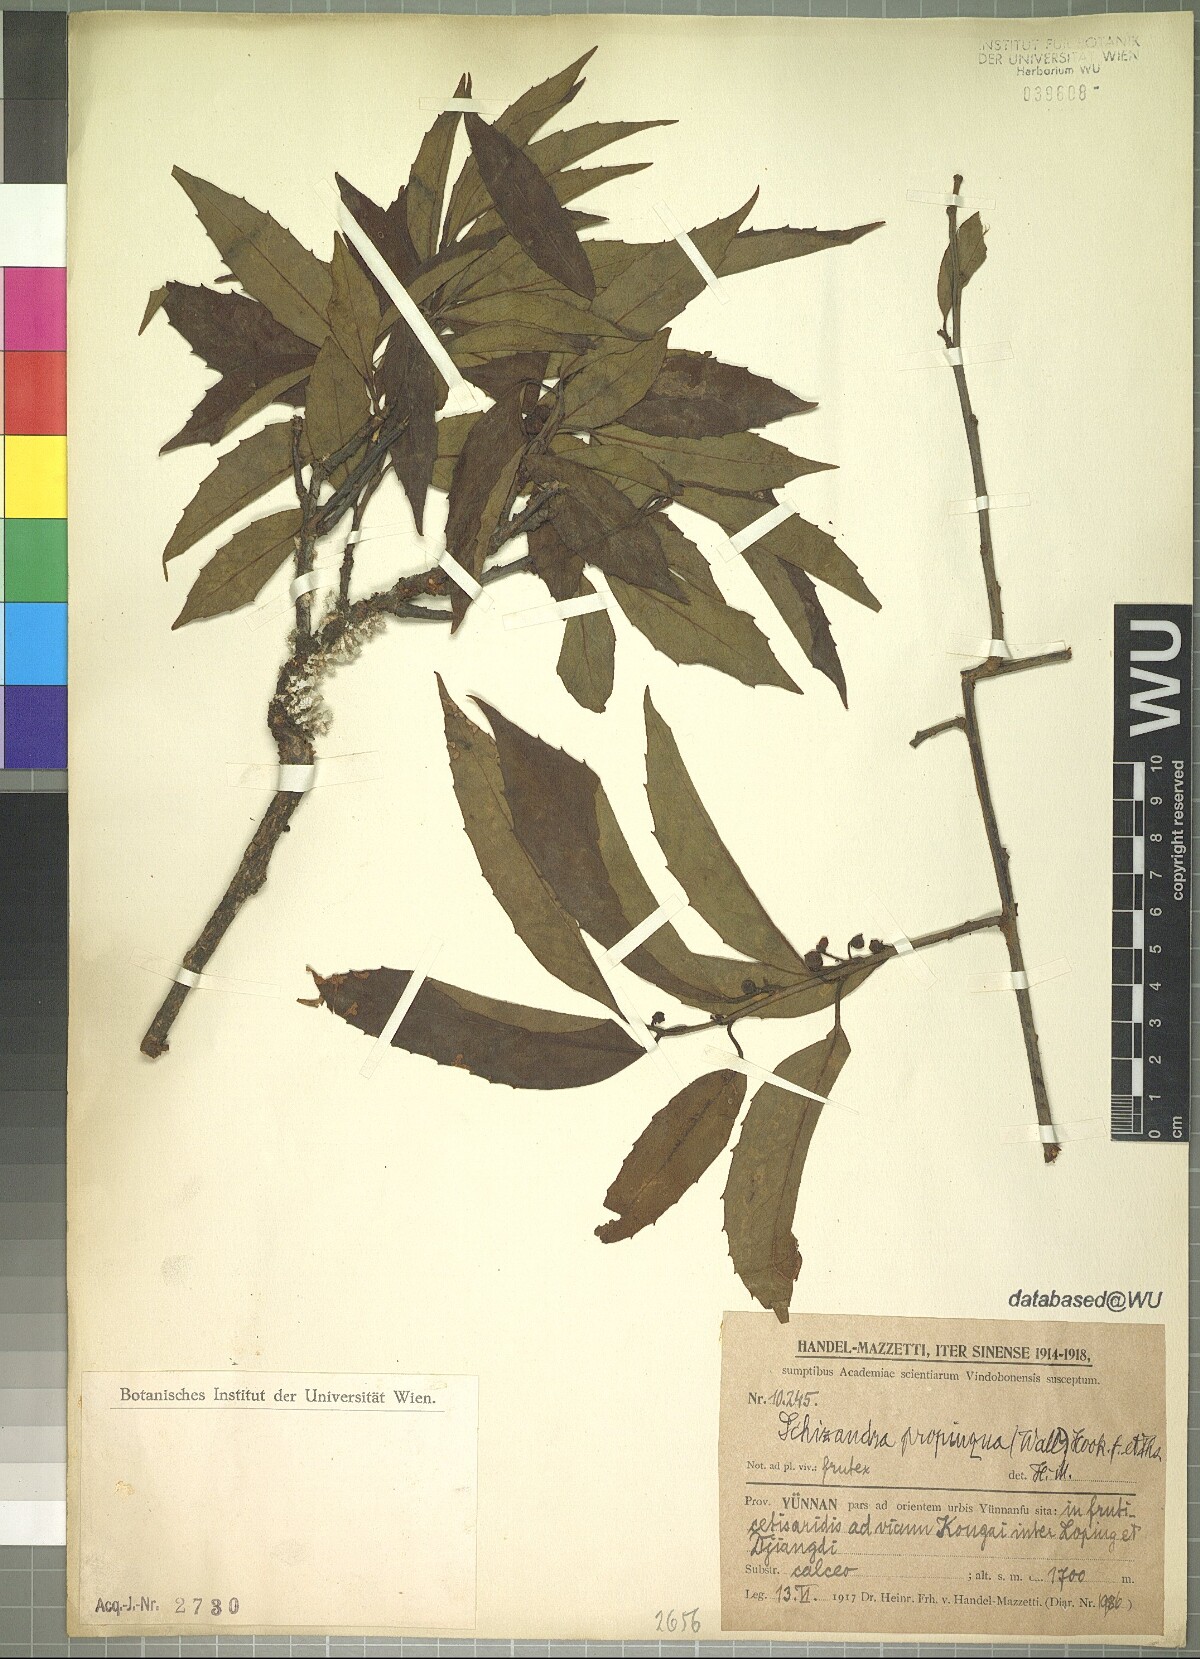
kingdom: Plantae
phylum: Tracheophyta
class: Magnoliopsida
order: Austrobaileyales
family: Schisandraceae
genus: Schisandra
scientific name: Schisandra propinqua
